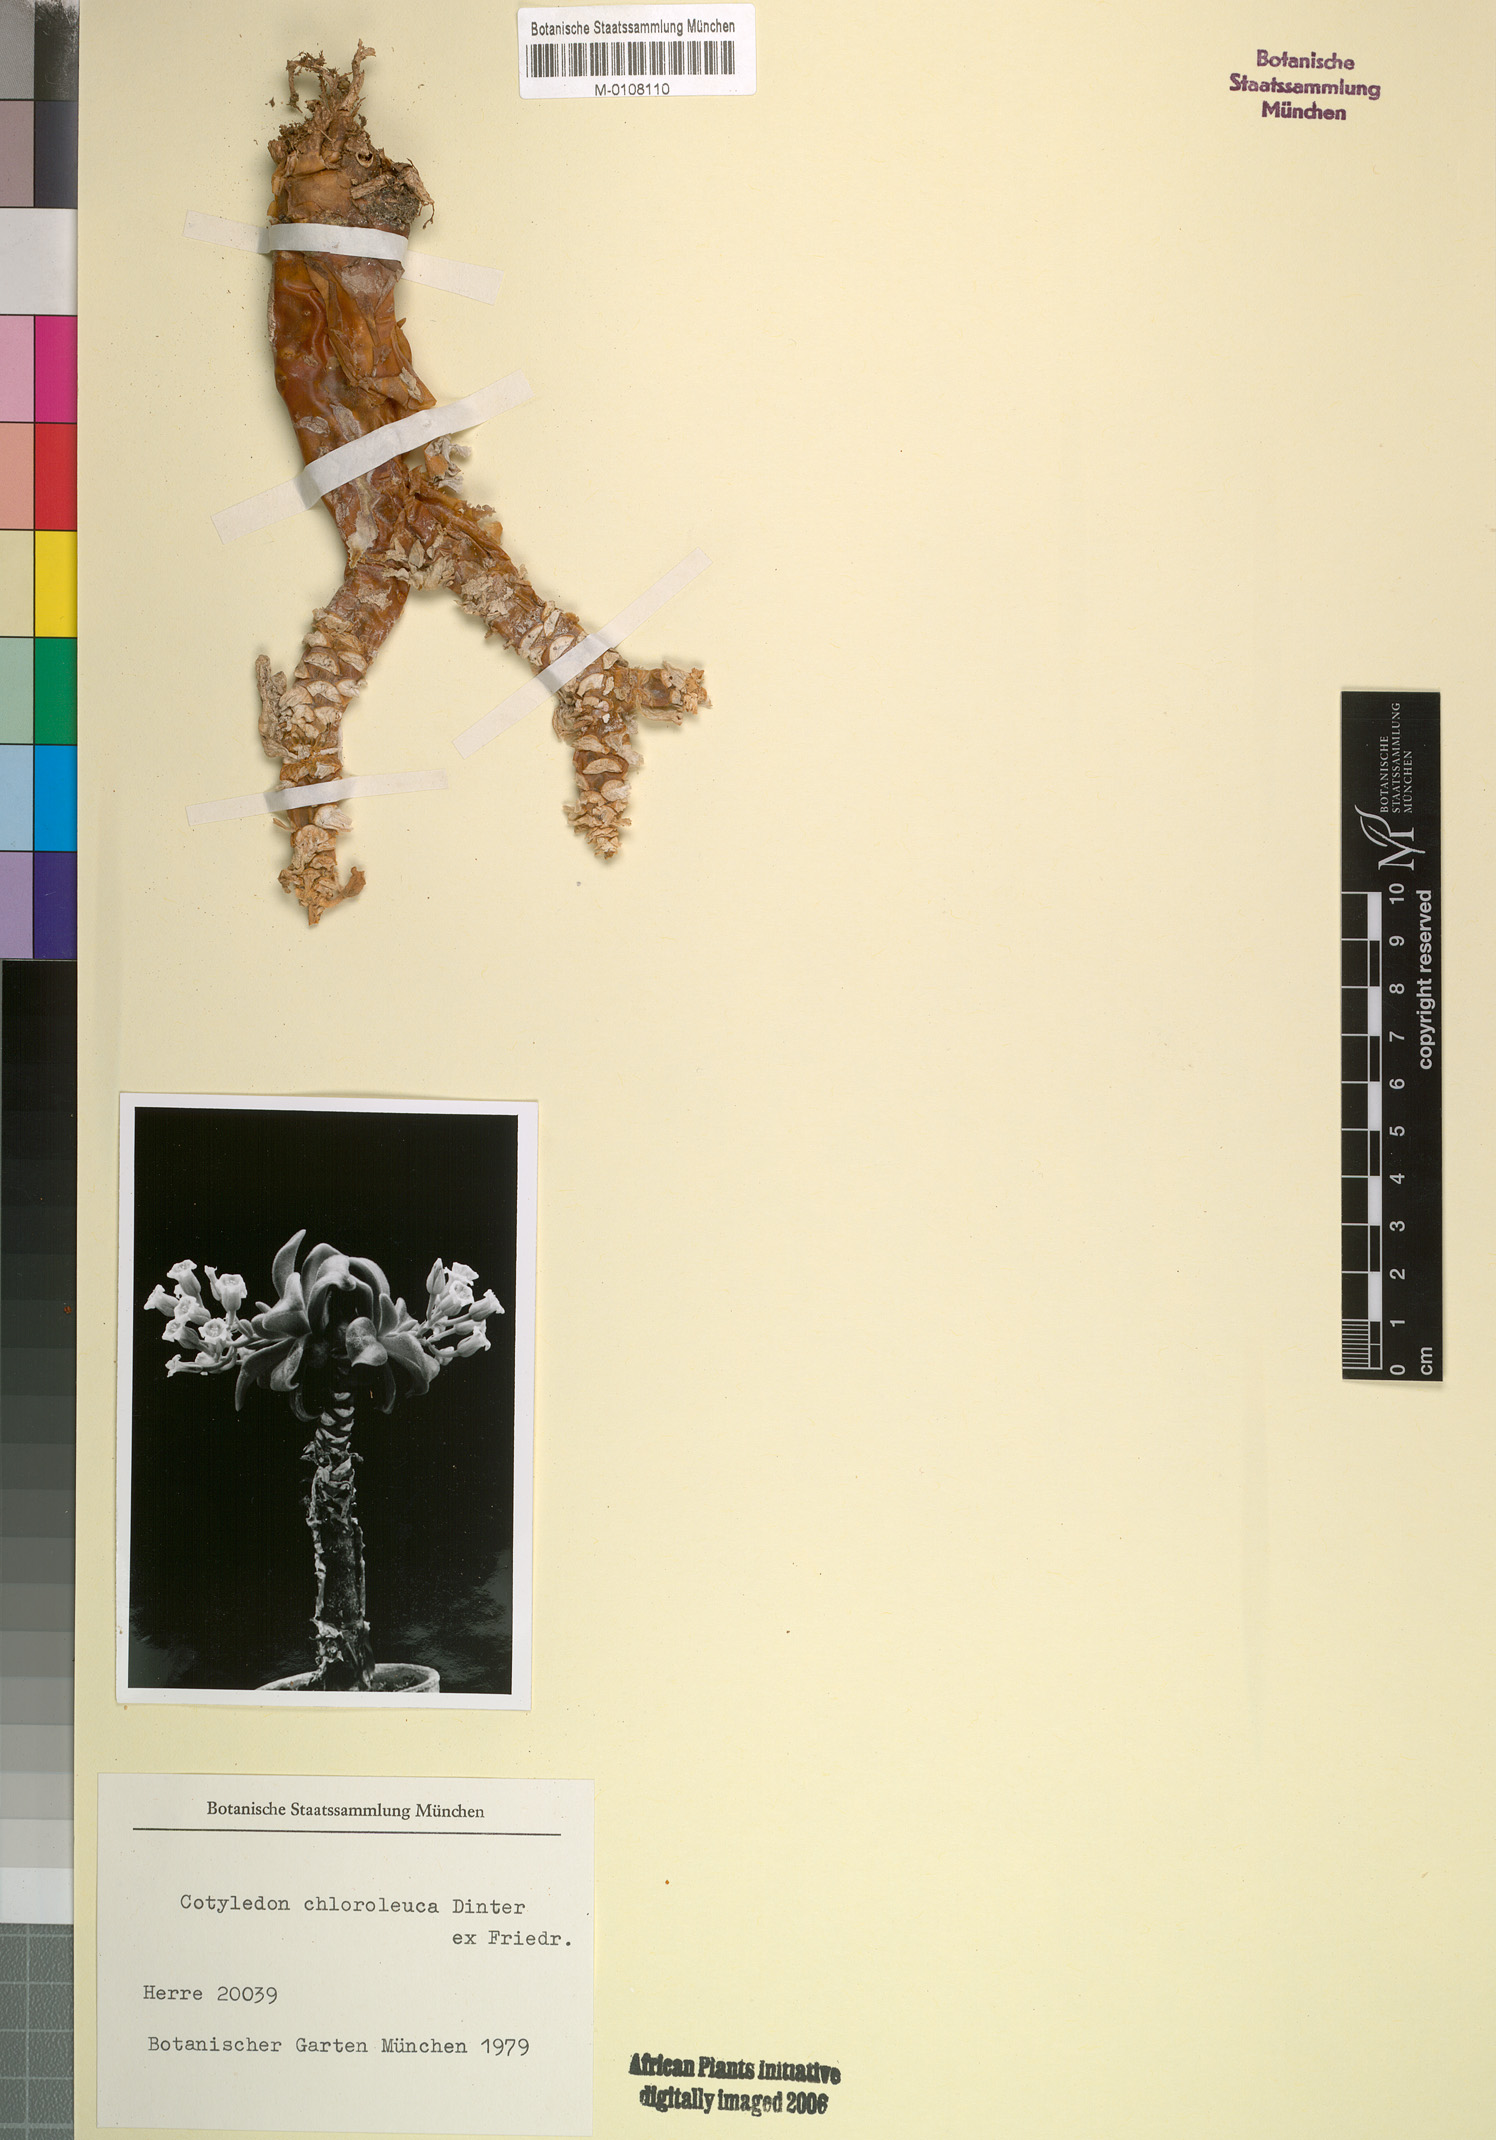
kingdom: Plantae
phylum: Tracheophyta
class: Magnoliopsida
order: Saxifragales
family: Crassulaceae
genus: Tylecodon
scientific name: Tylecodon racemosus
